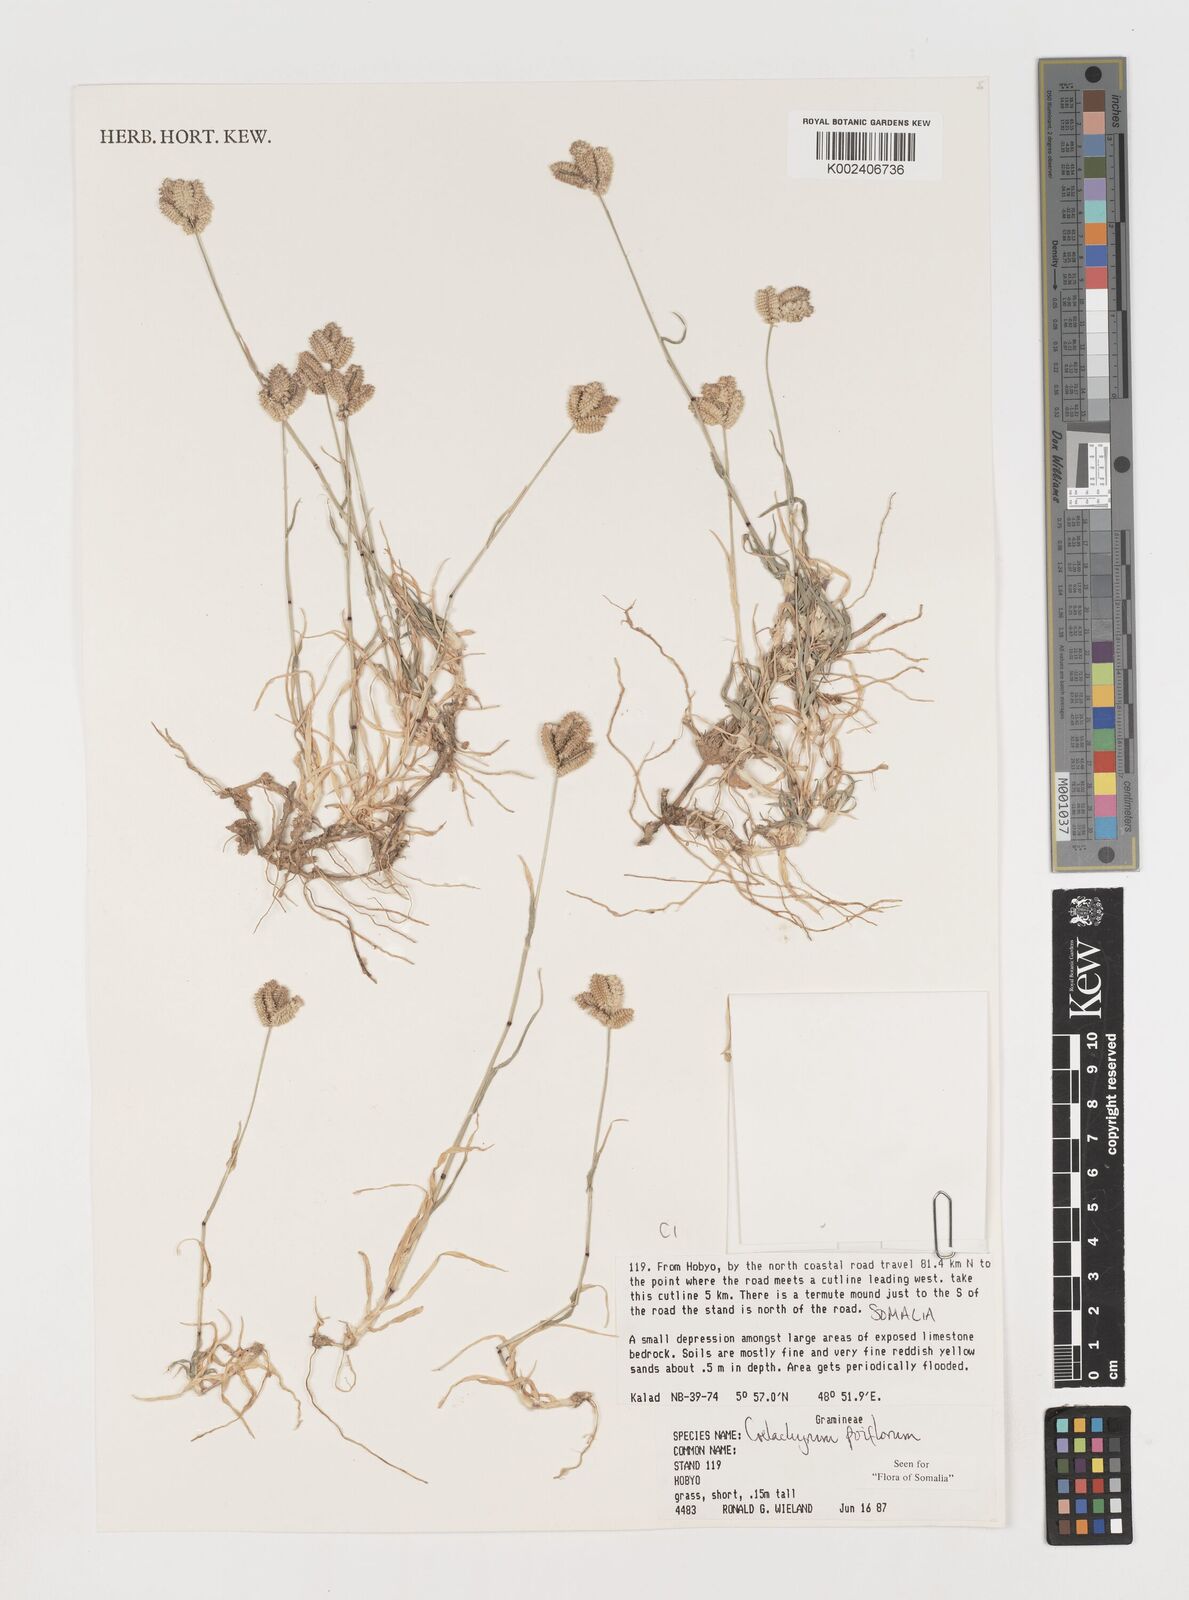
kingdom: Plantae
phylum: Tracheophyta
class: Liliopsida
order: Poales
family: Poaceae
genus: Coelachyrum
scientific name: Coelachyrum poiflorum
